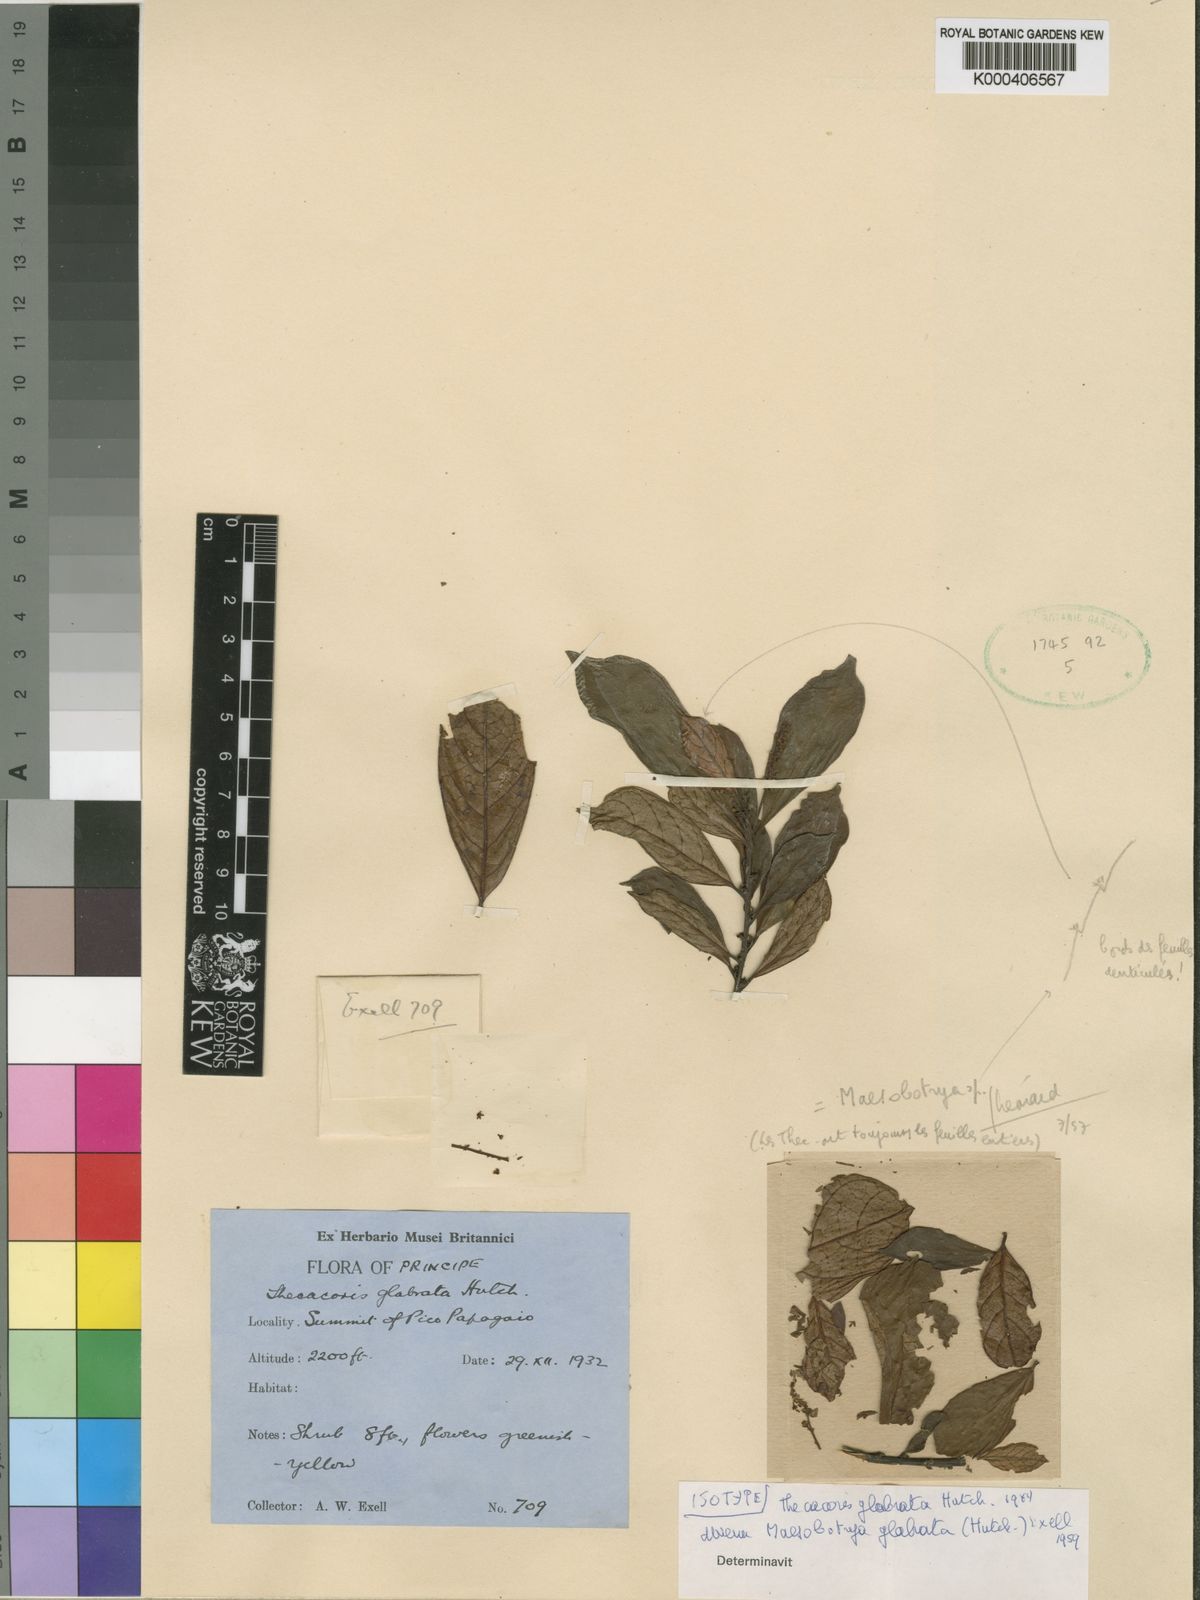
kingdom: Plantae
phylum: Tracheophyta
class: Magnoliopsida
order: Malpighiales
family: Phyllanthaceae
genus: Maesobotrya
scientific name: Maesobotrya glabrata
